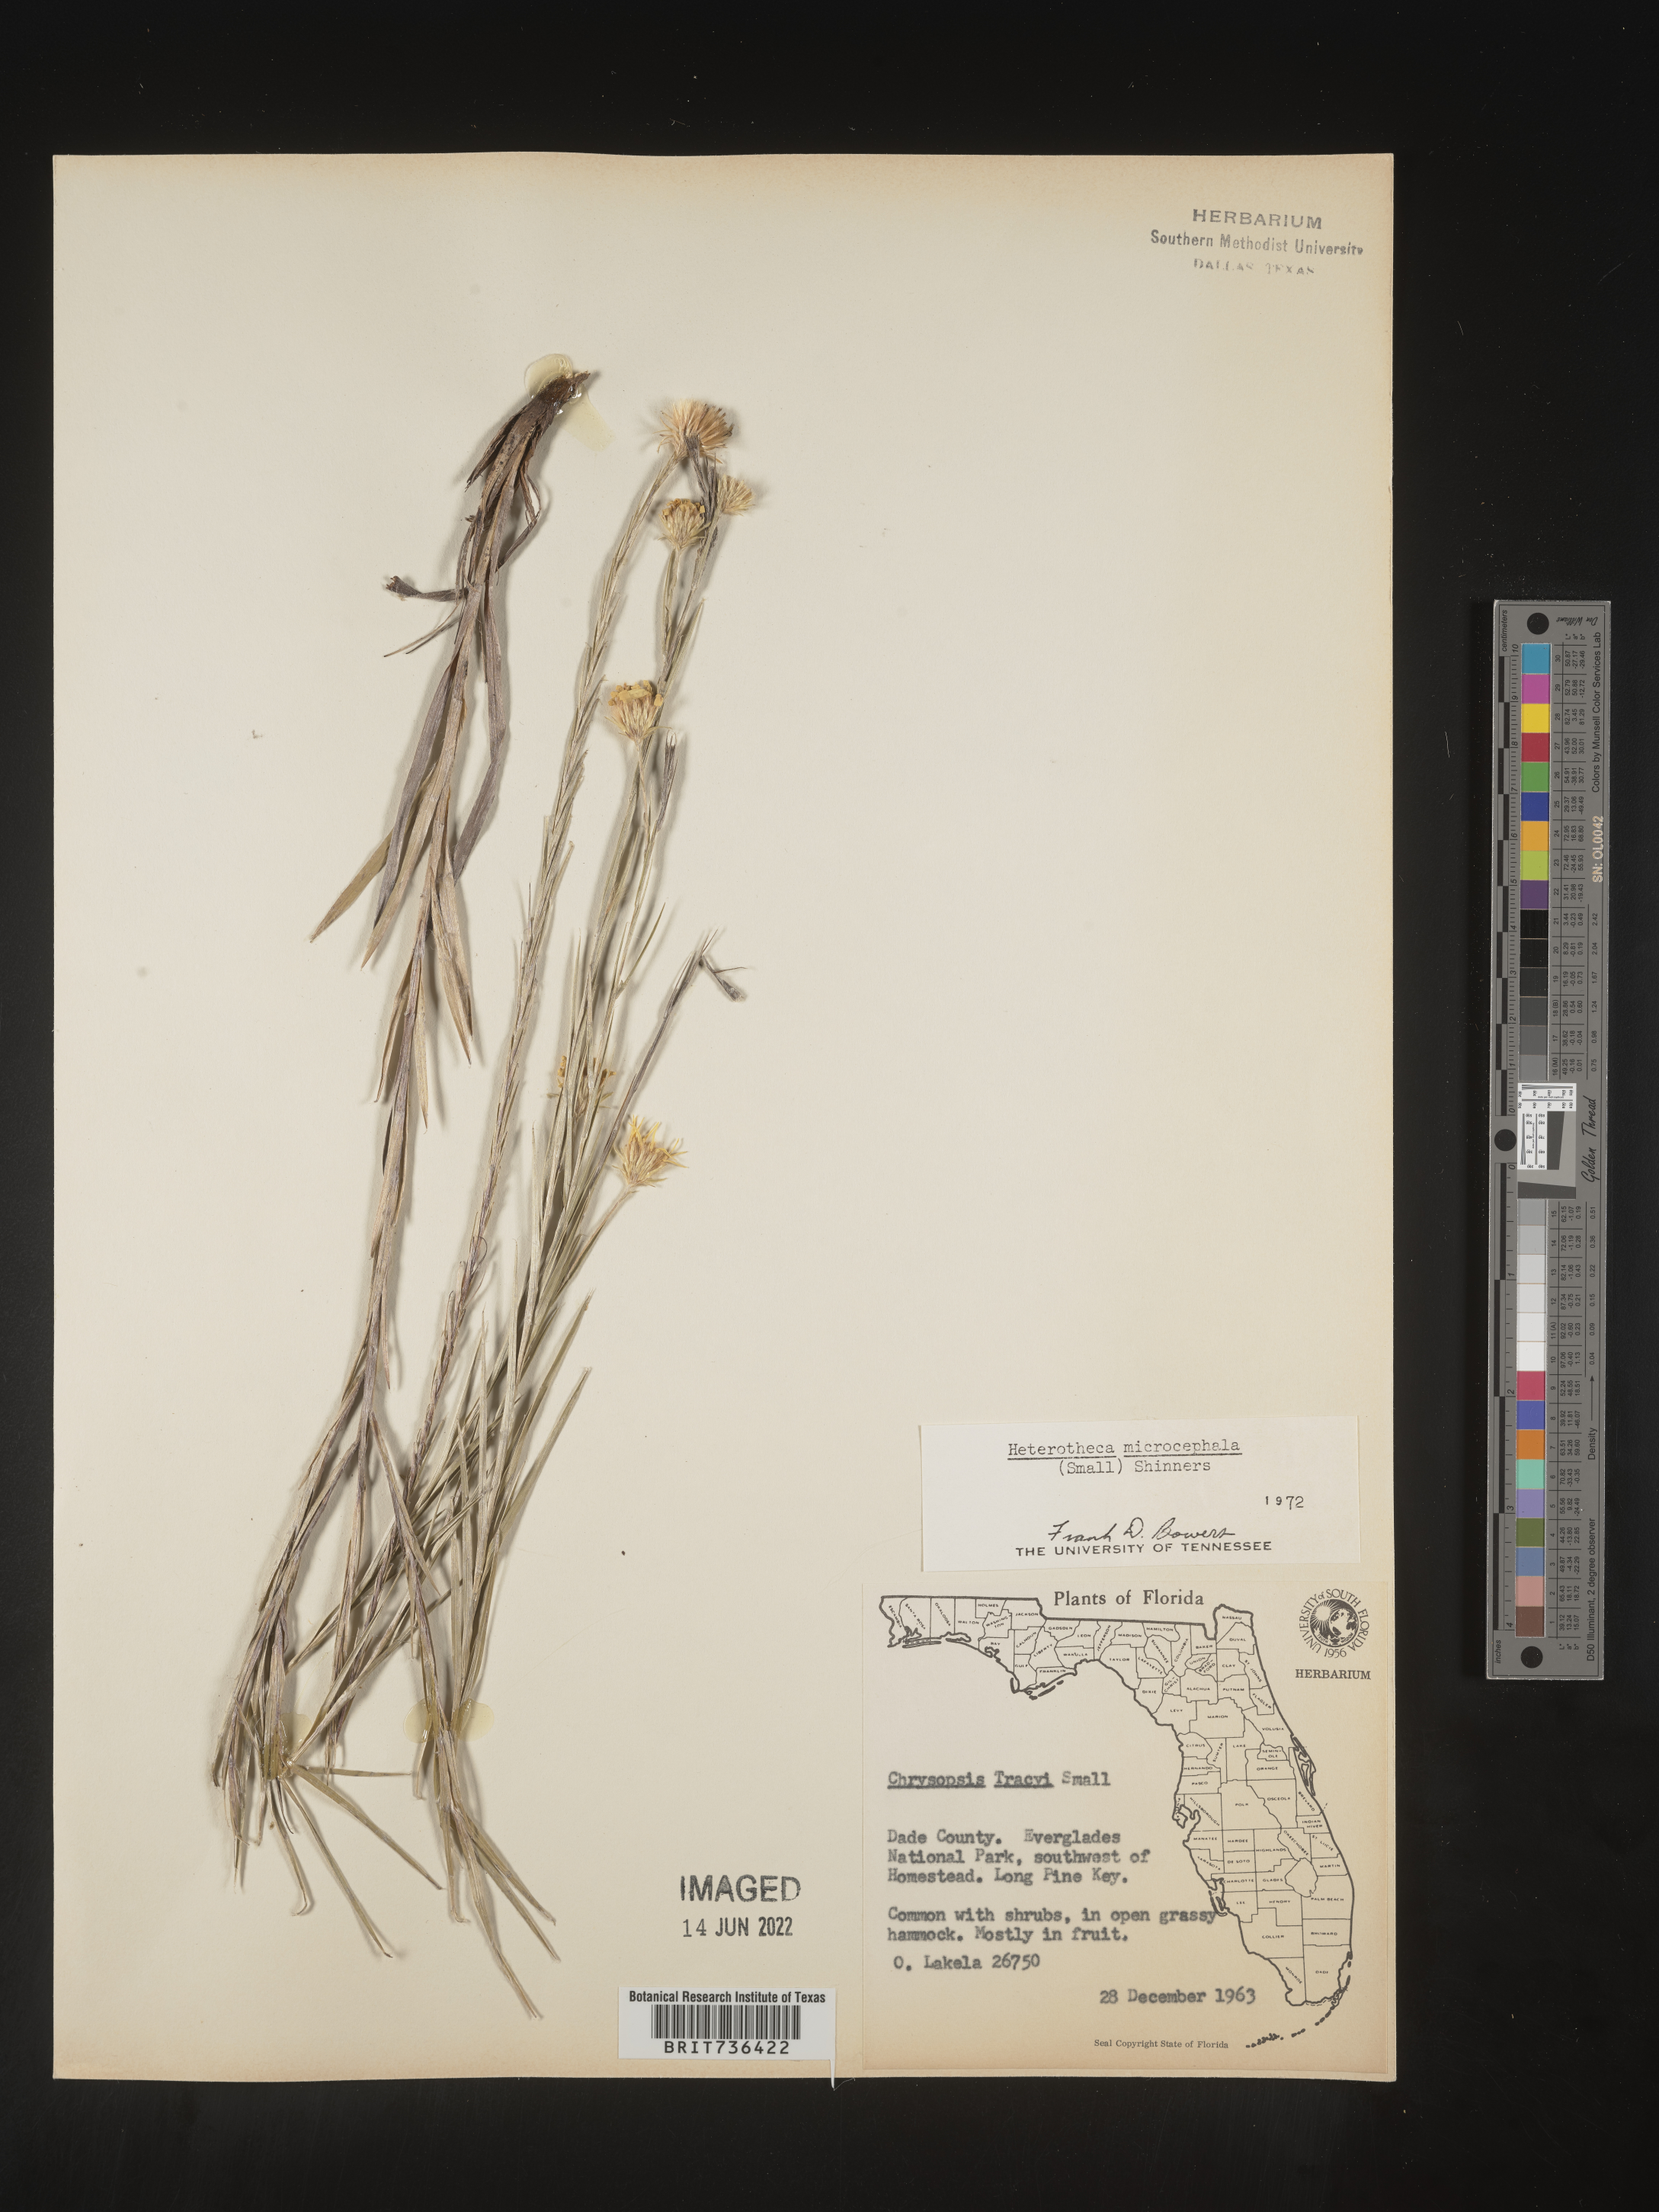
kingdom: Plantae
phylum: Tracheophyta
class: Magnoliopsida
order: Asterales
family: Asteraceae
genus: Pityopsis
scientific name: Pityopsis tracyi
